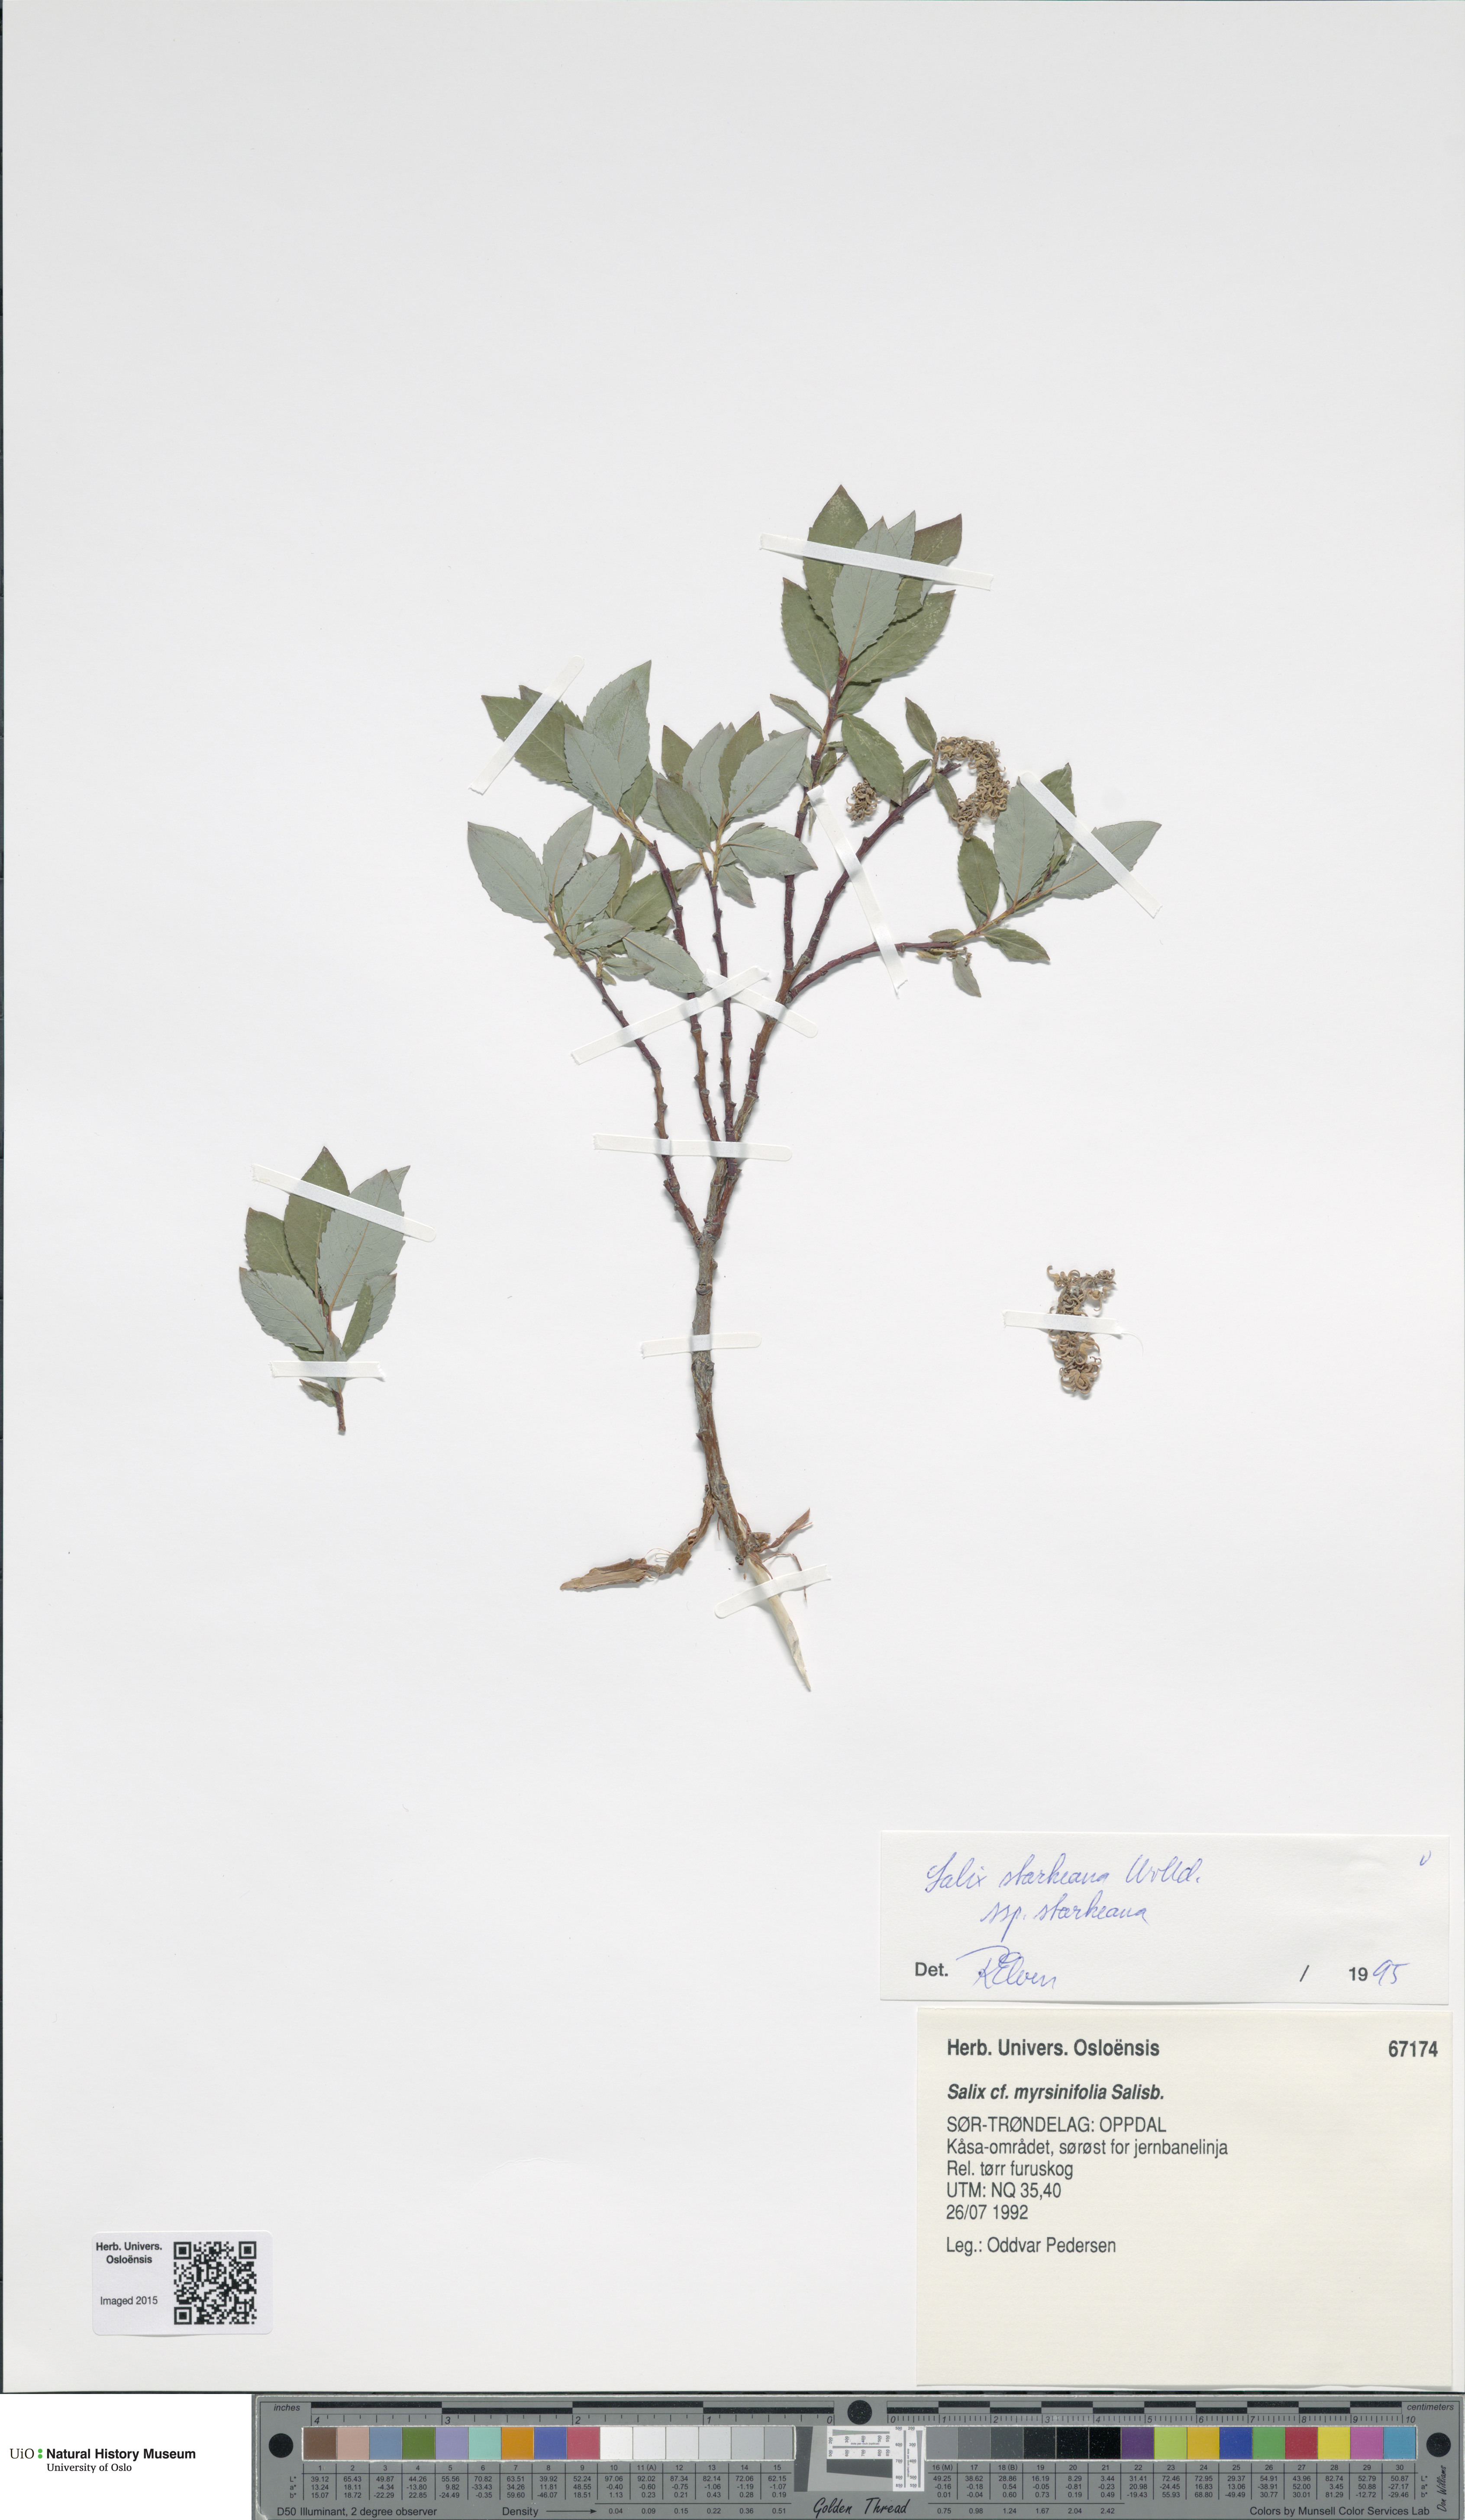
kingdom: Plantae
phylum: Tracheophyta
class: Magnoliopsida
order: Malpighiales
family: Salicaceae
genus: Salix
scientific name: Salix starkeana
